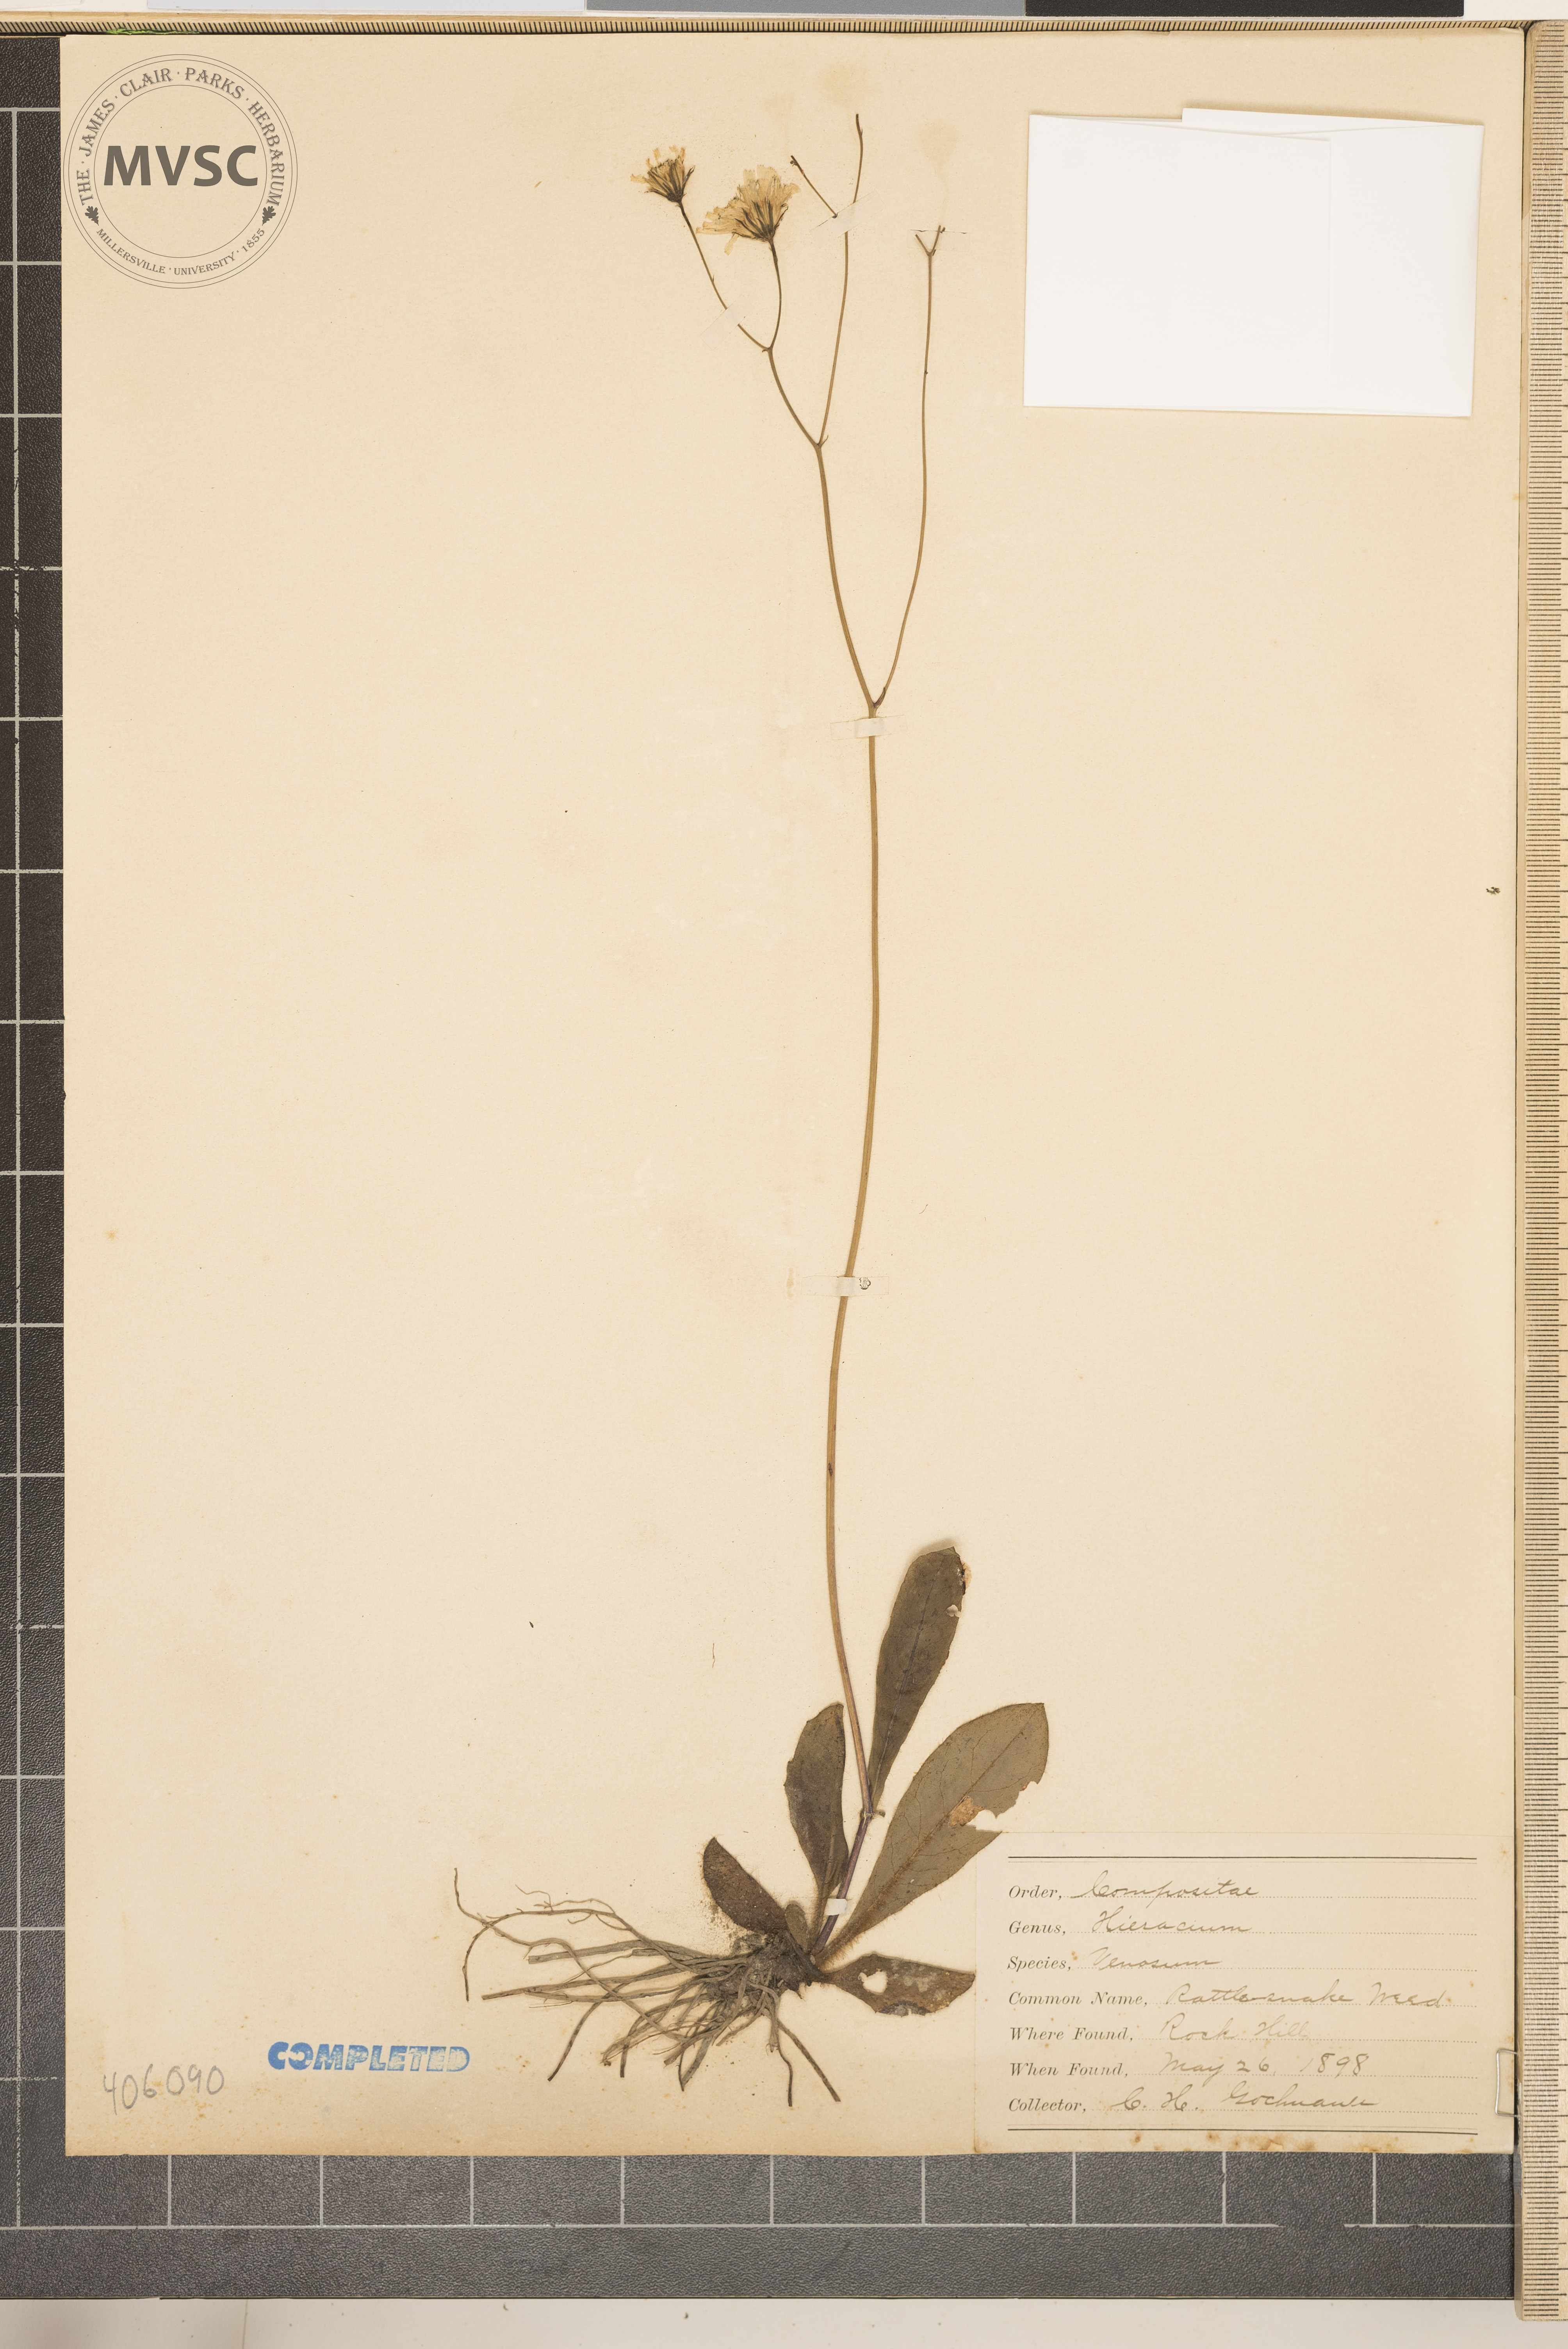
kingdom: Plantae
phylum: Tracheophyta
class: Magnoliopsida
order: Asterales
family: Asteraceae
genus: Hieracium
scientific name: Hieracium venosum
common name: Rattlesnake hawkweed
